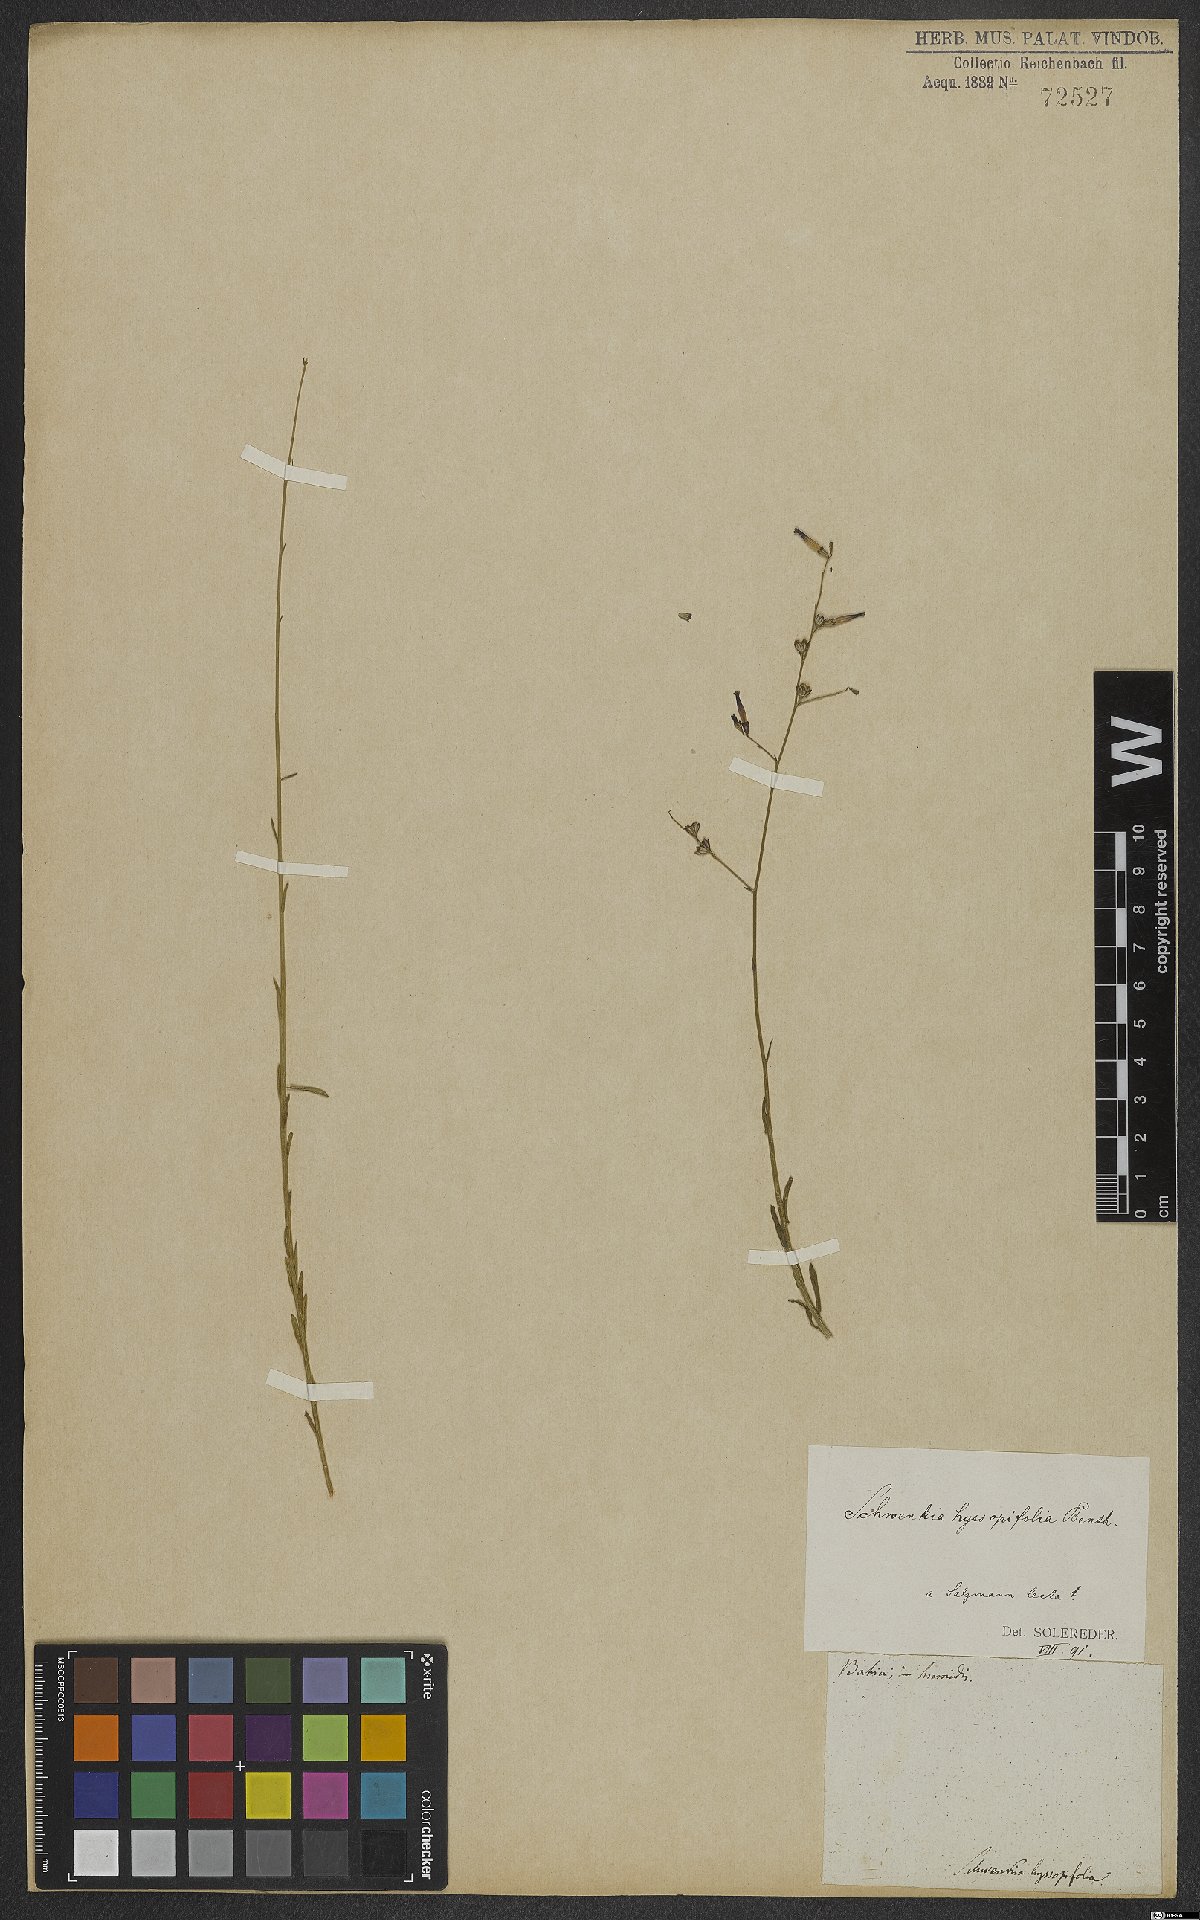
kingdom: Plantae
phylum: Tracheophyta
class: Magnoliopsida
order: Solanales
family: Solanaceae
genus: Schwenckia
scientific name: Schwenckia hyssopifolia
